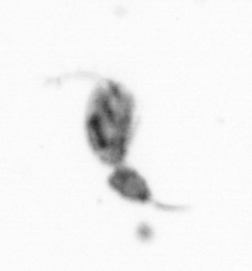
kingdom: Animalia
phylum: Arthropoda
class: Copepoda
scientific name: Copepoda
